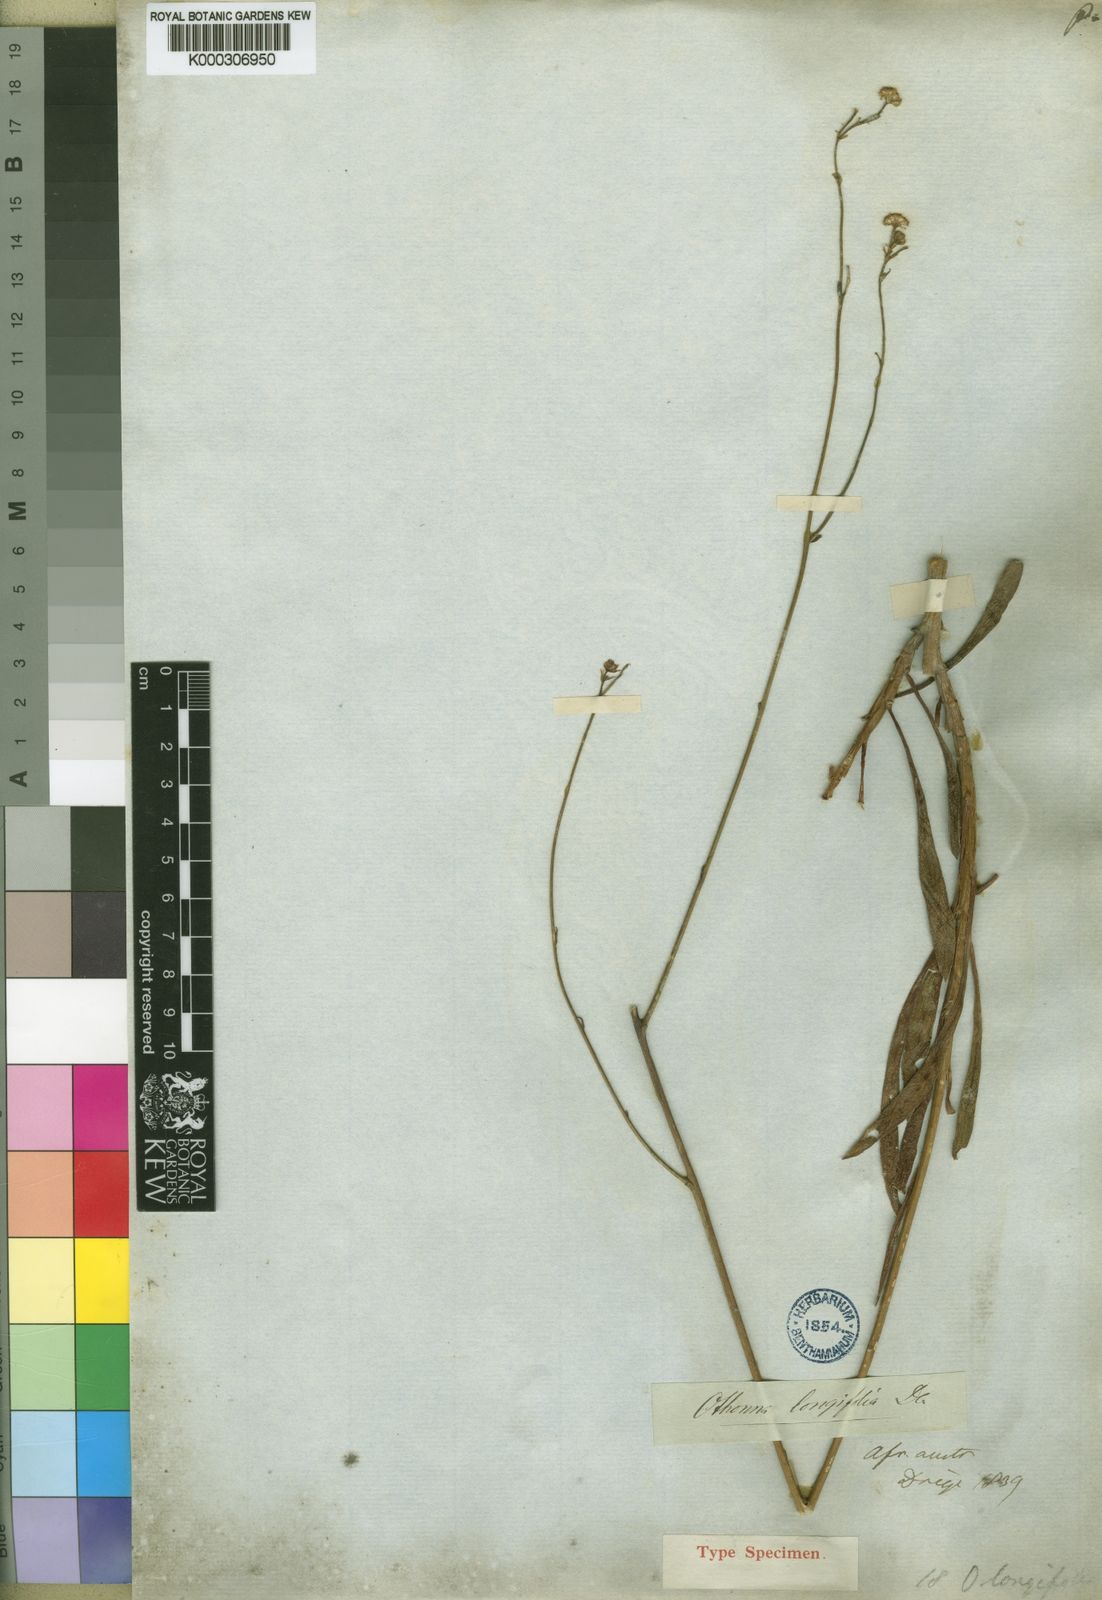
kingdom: Plantae
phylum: Tracheophyta
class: Magnoliopsida
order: Asterales
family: Asteraceae
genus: Othonna
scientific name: Othonna parviflora
